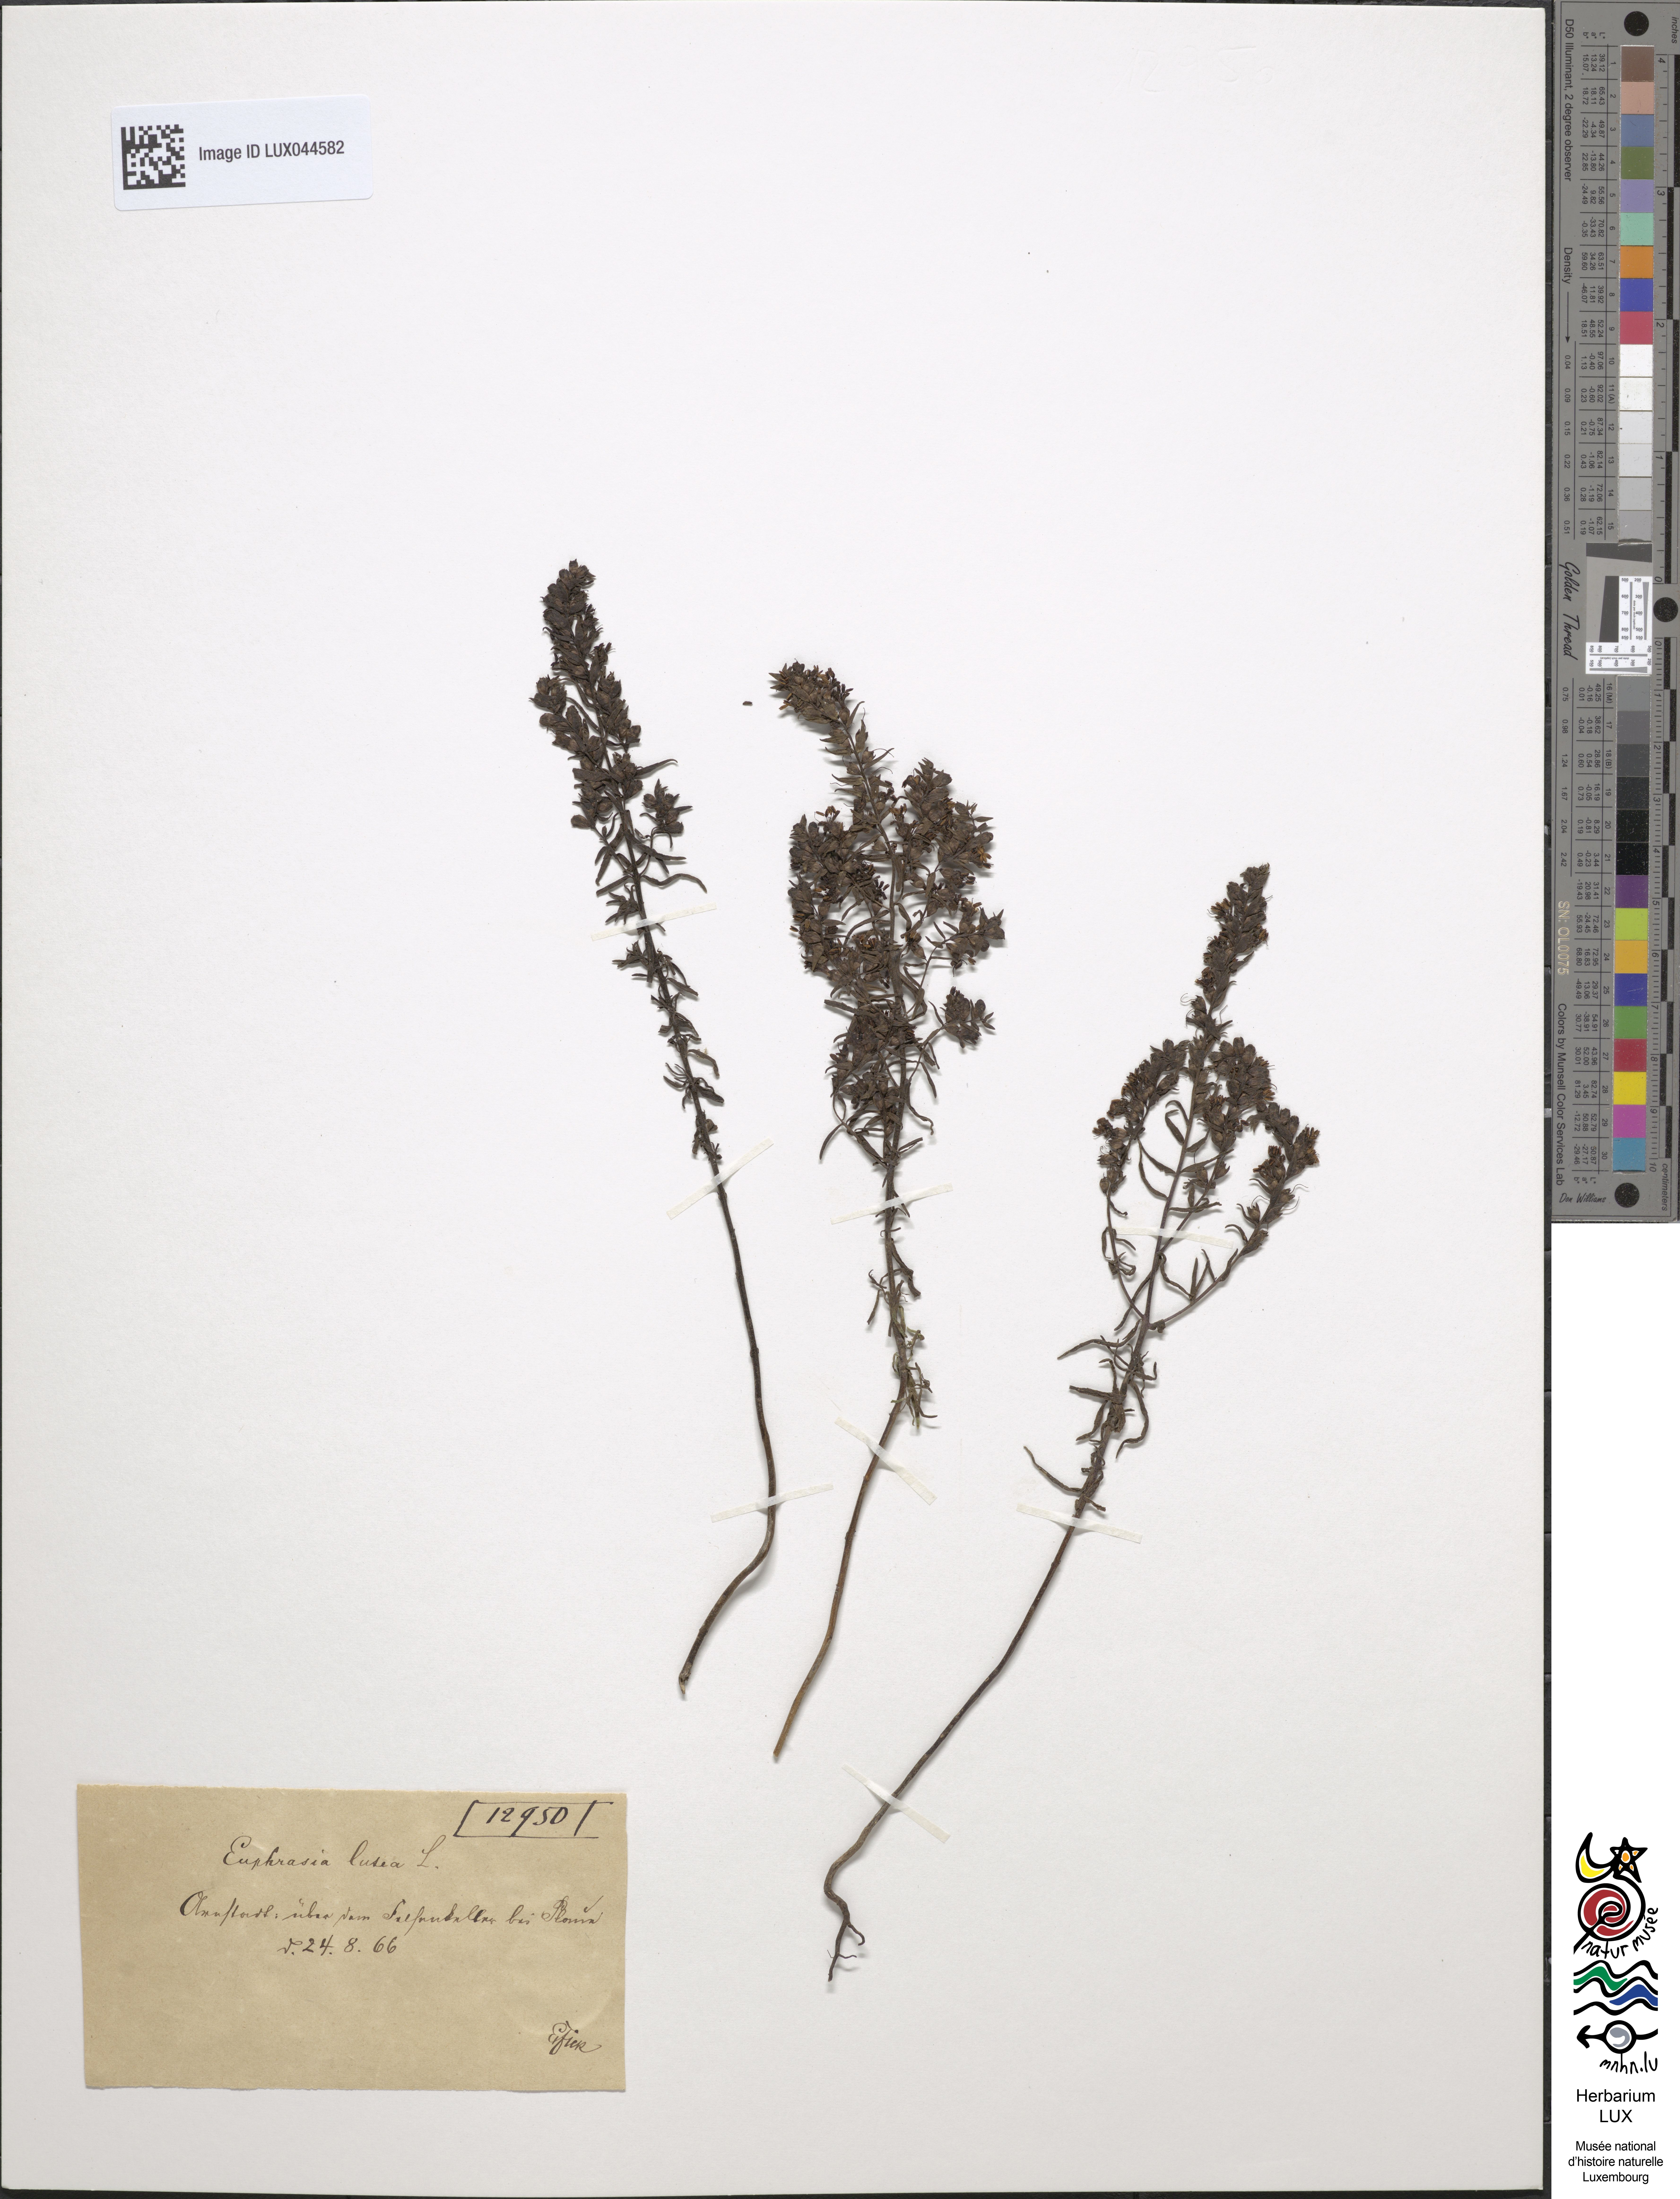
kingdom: Plantae
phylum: Tracheophyta
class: Magnoliopsida
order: Lamiales
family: Orobanchaceae
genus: Odontites
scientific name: Odontites luteus
